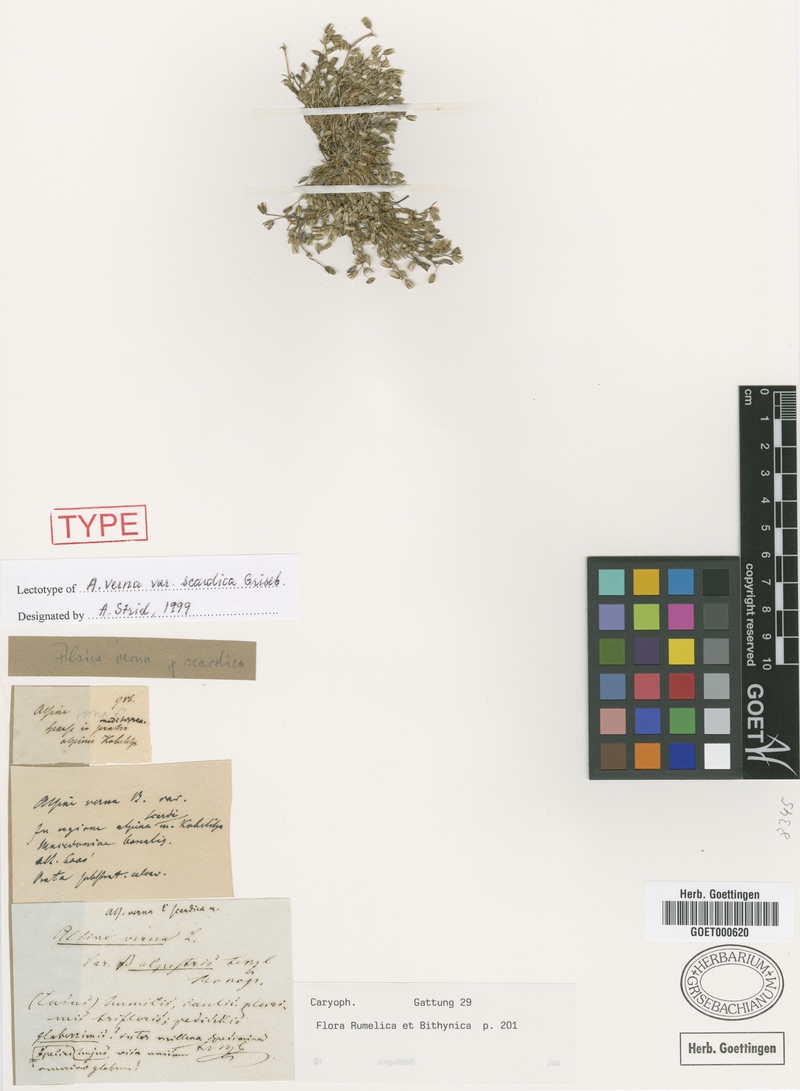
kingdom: Plantae
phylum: Tracheophyta
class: Magnoliopsida
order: Caryophyllales
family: Caryophyllaceae
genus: Sabulina
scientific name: Sabulina verna
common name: Spring sandwort
